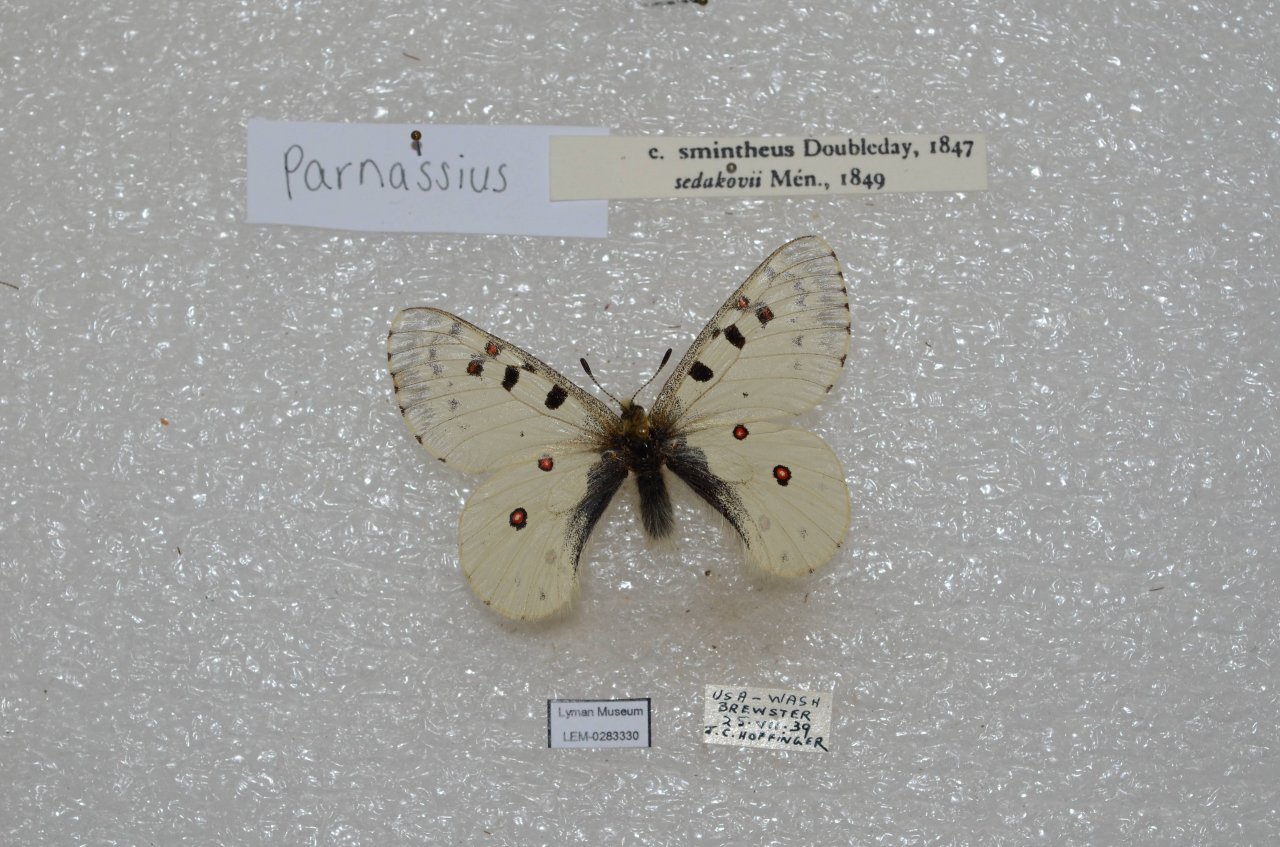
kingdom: Animalia
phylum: Arthropoda
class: Insecta
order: Lepidoptera
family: Papilionidae
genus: Parnassius
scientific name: Parnassius smintheus
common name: Rocky Mountain Parnassian
